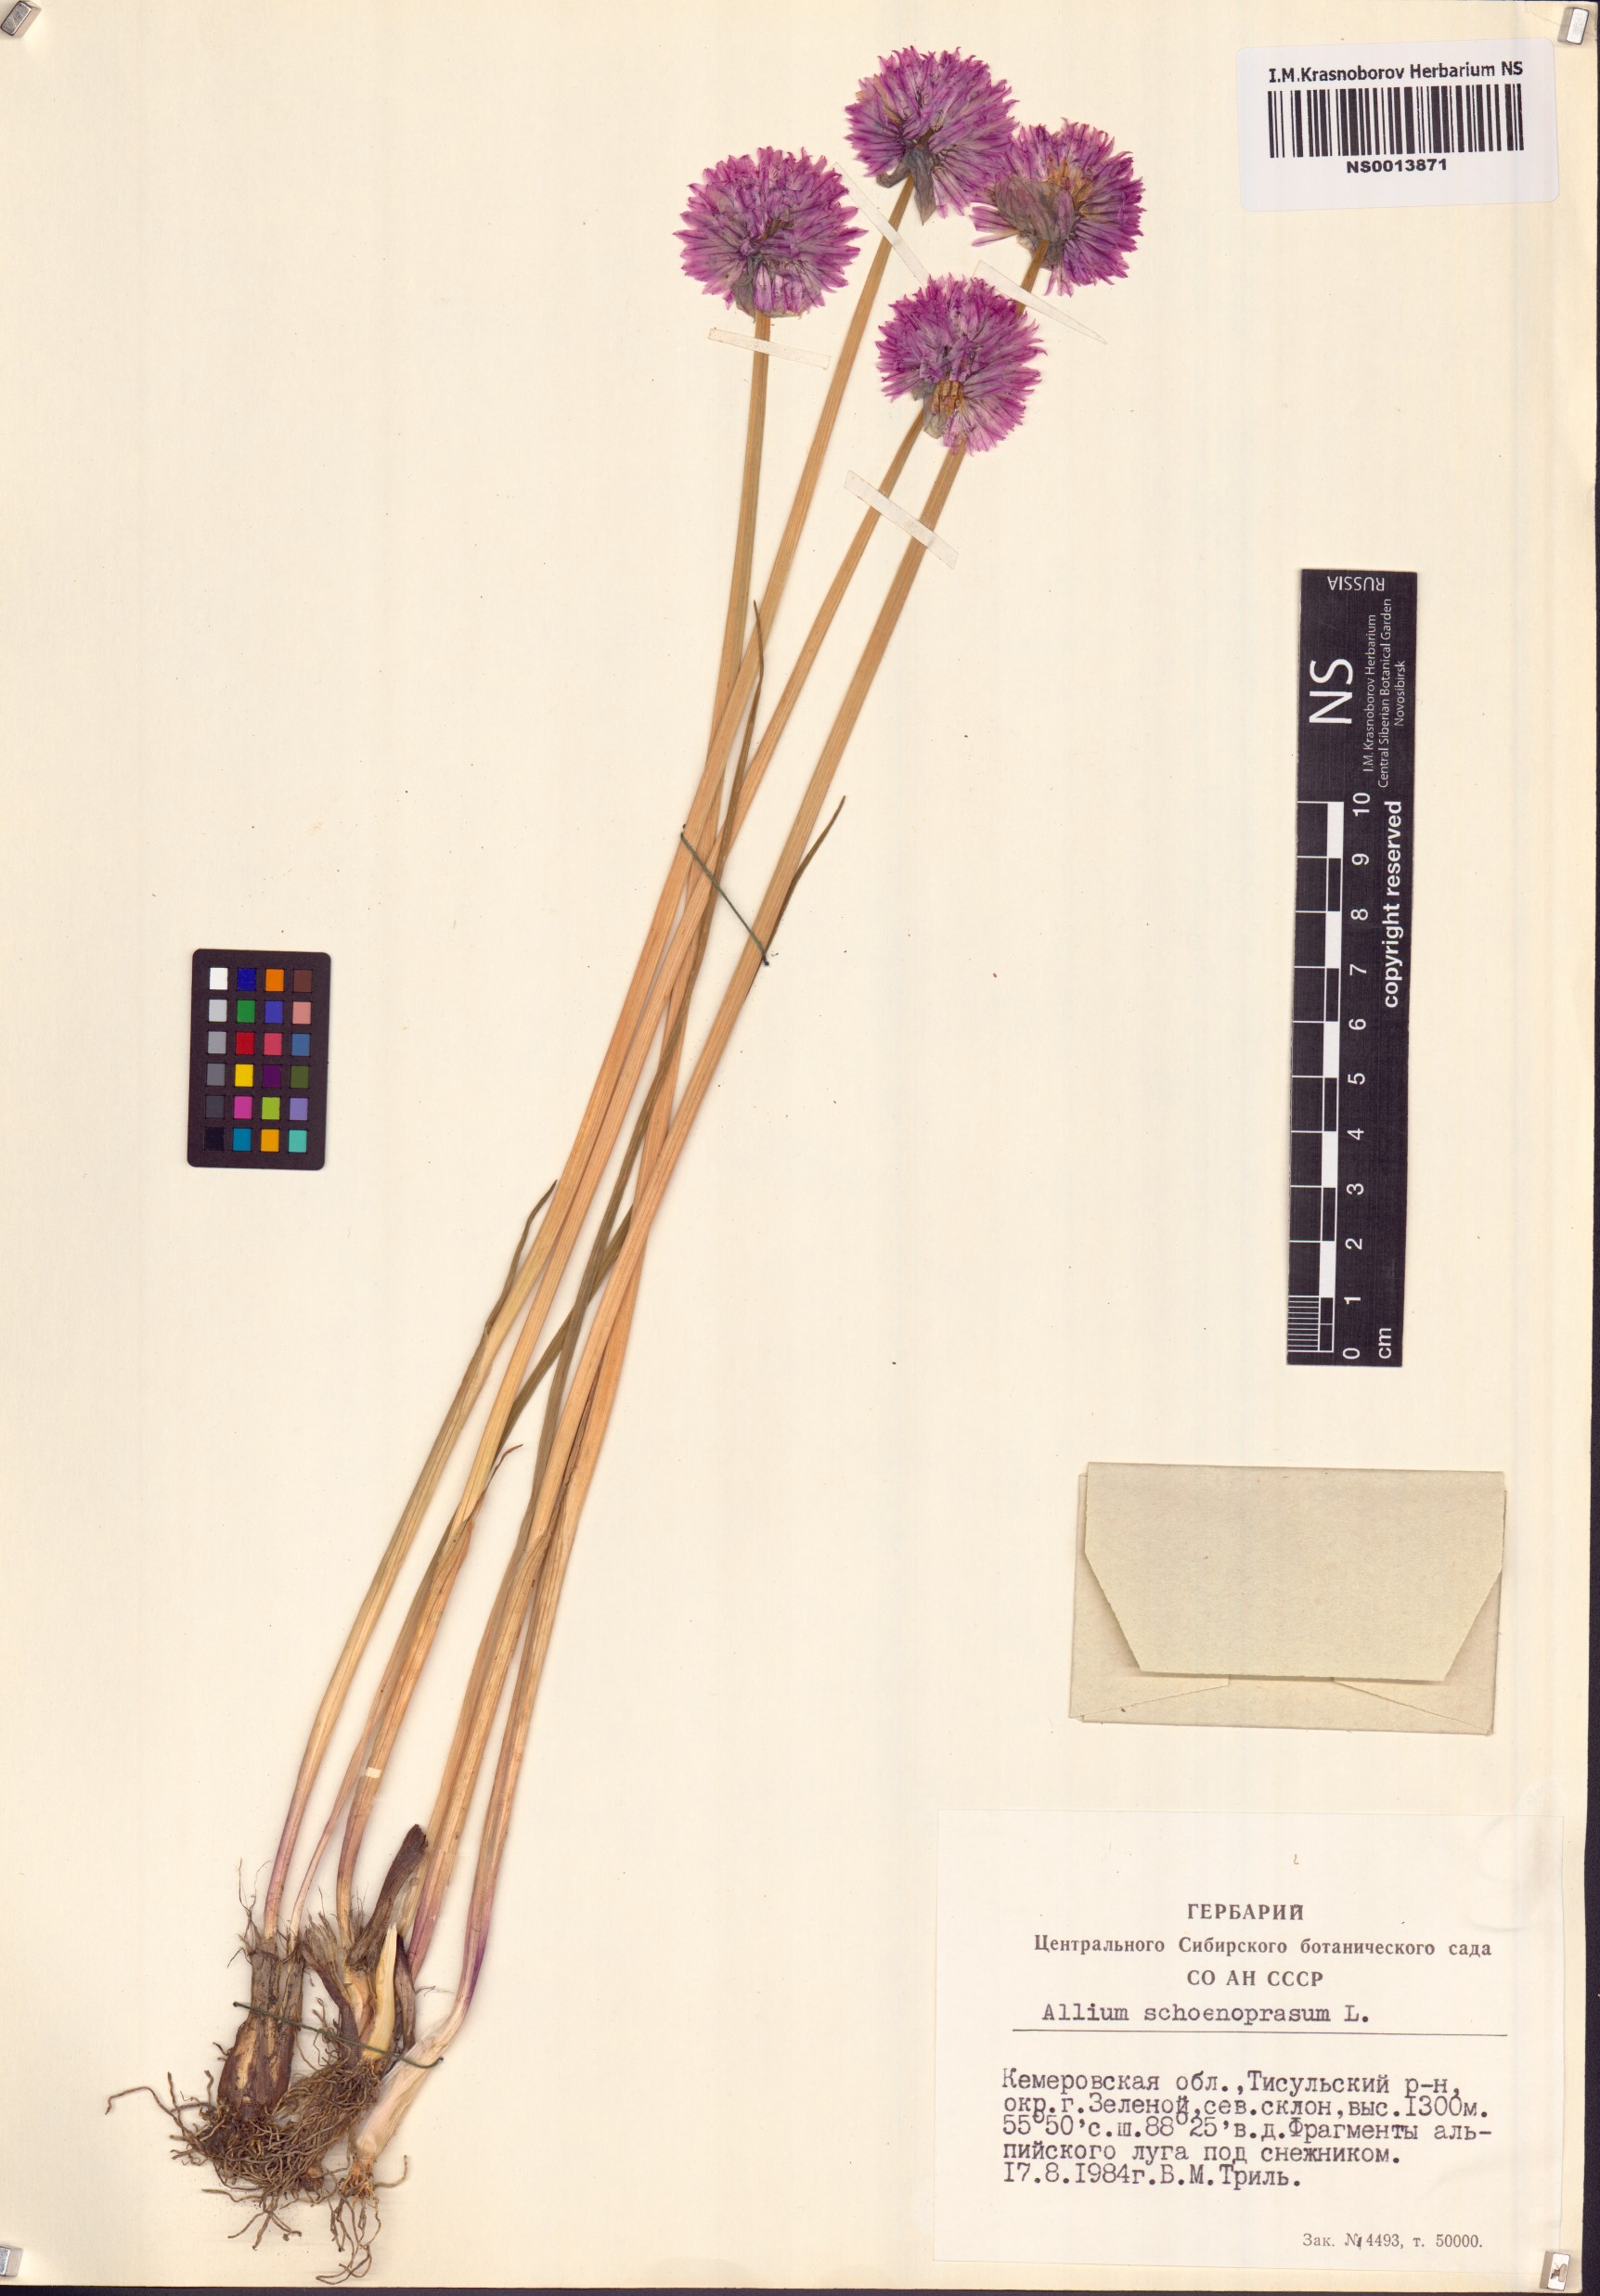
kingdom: Plantae
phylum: Tracheophyta
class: Liliopsida
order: Asparagales
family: Amaryllidaceae
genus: Allium
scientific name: Allium schoenoprasum
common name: Chives
